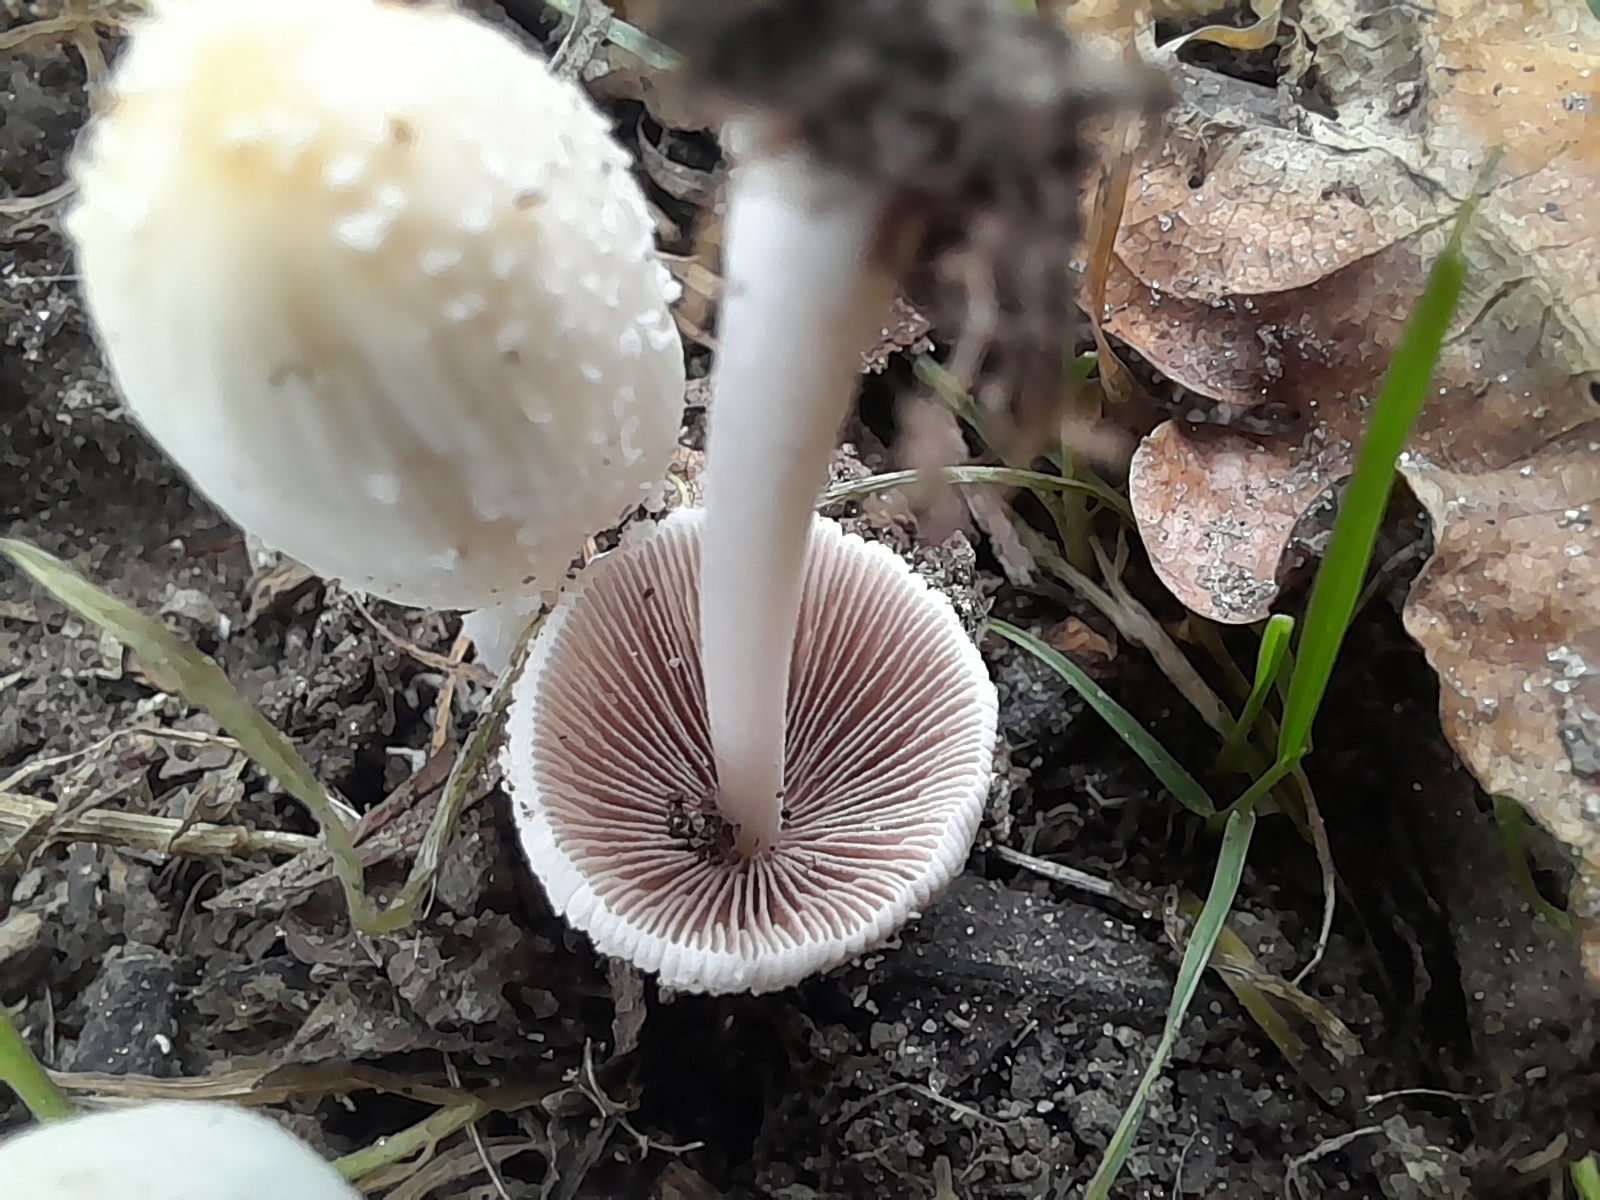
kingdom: Fungi
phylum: Basidiomycota
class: Agaricomycetes
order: Agaricales
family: Psathyrellaceae
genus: Coprinellus
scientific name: Coprinellus
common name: blækhat
